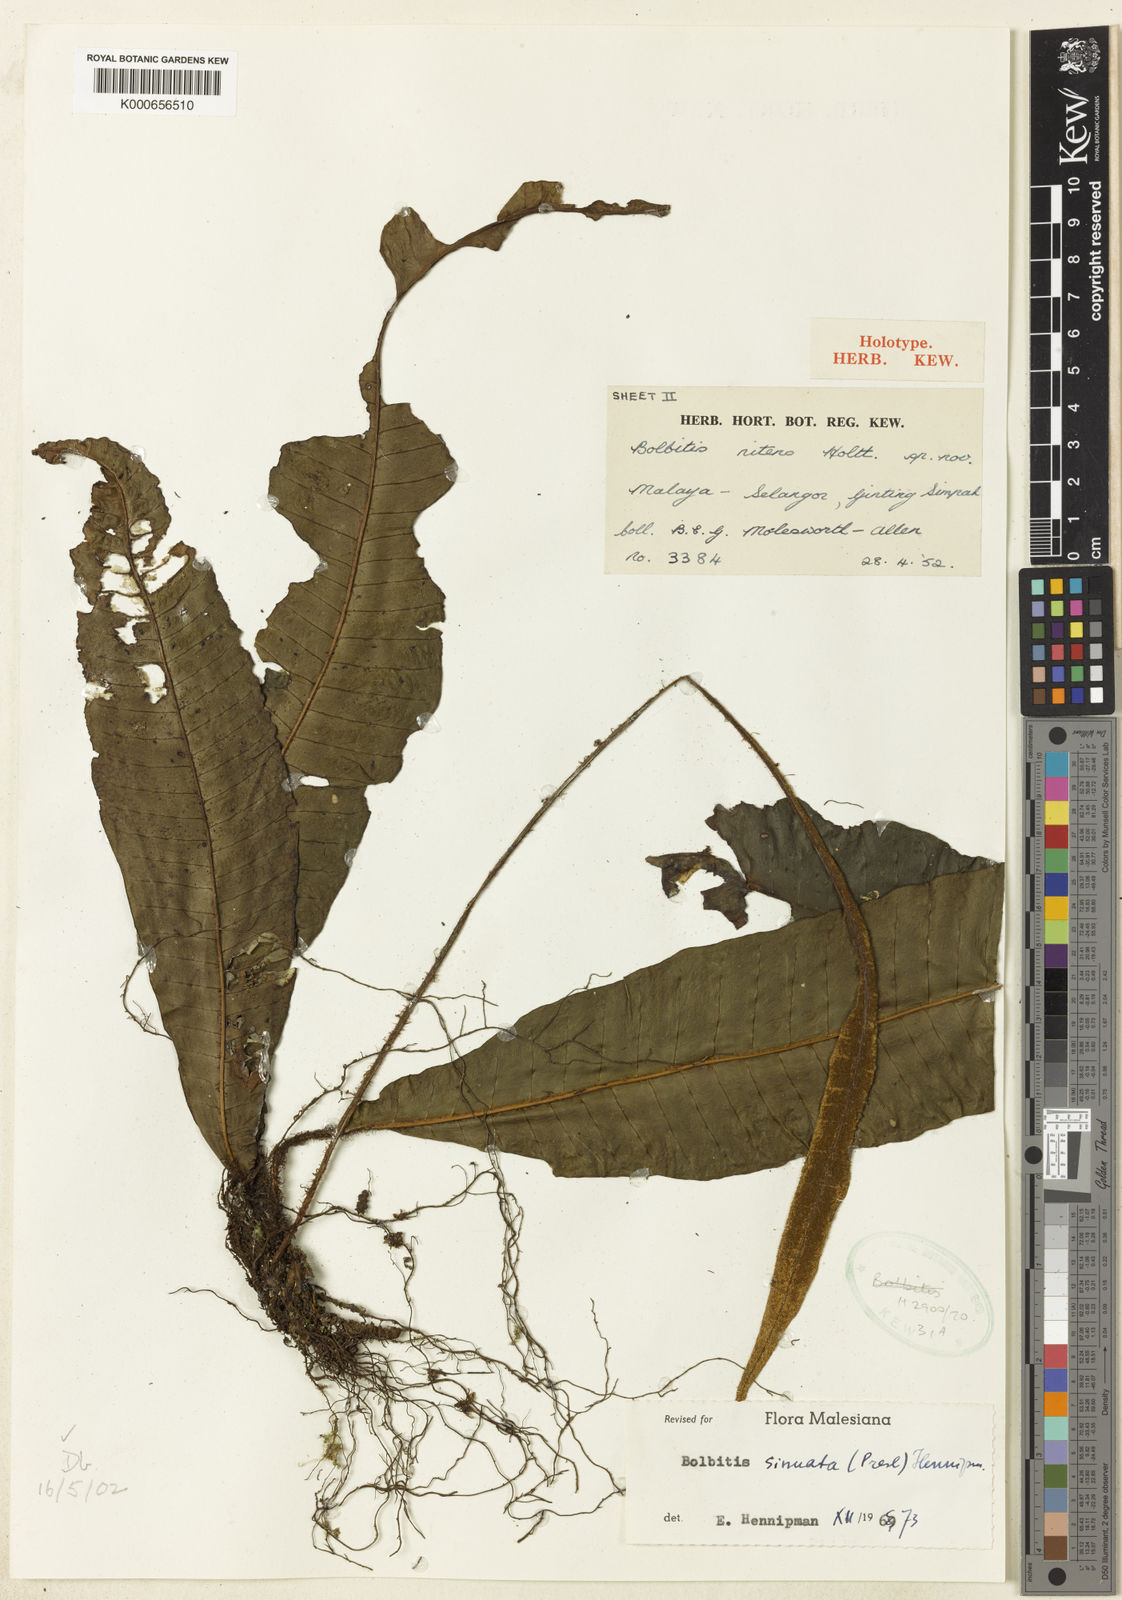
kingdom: Plantae
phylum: Tracheophyta
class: Polypodiopsida
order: Polypodiales
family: Dryopteridaceae
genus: Bolbitis
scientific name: Bolbitis sinuata
